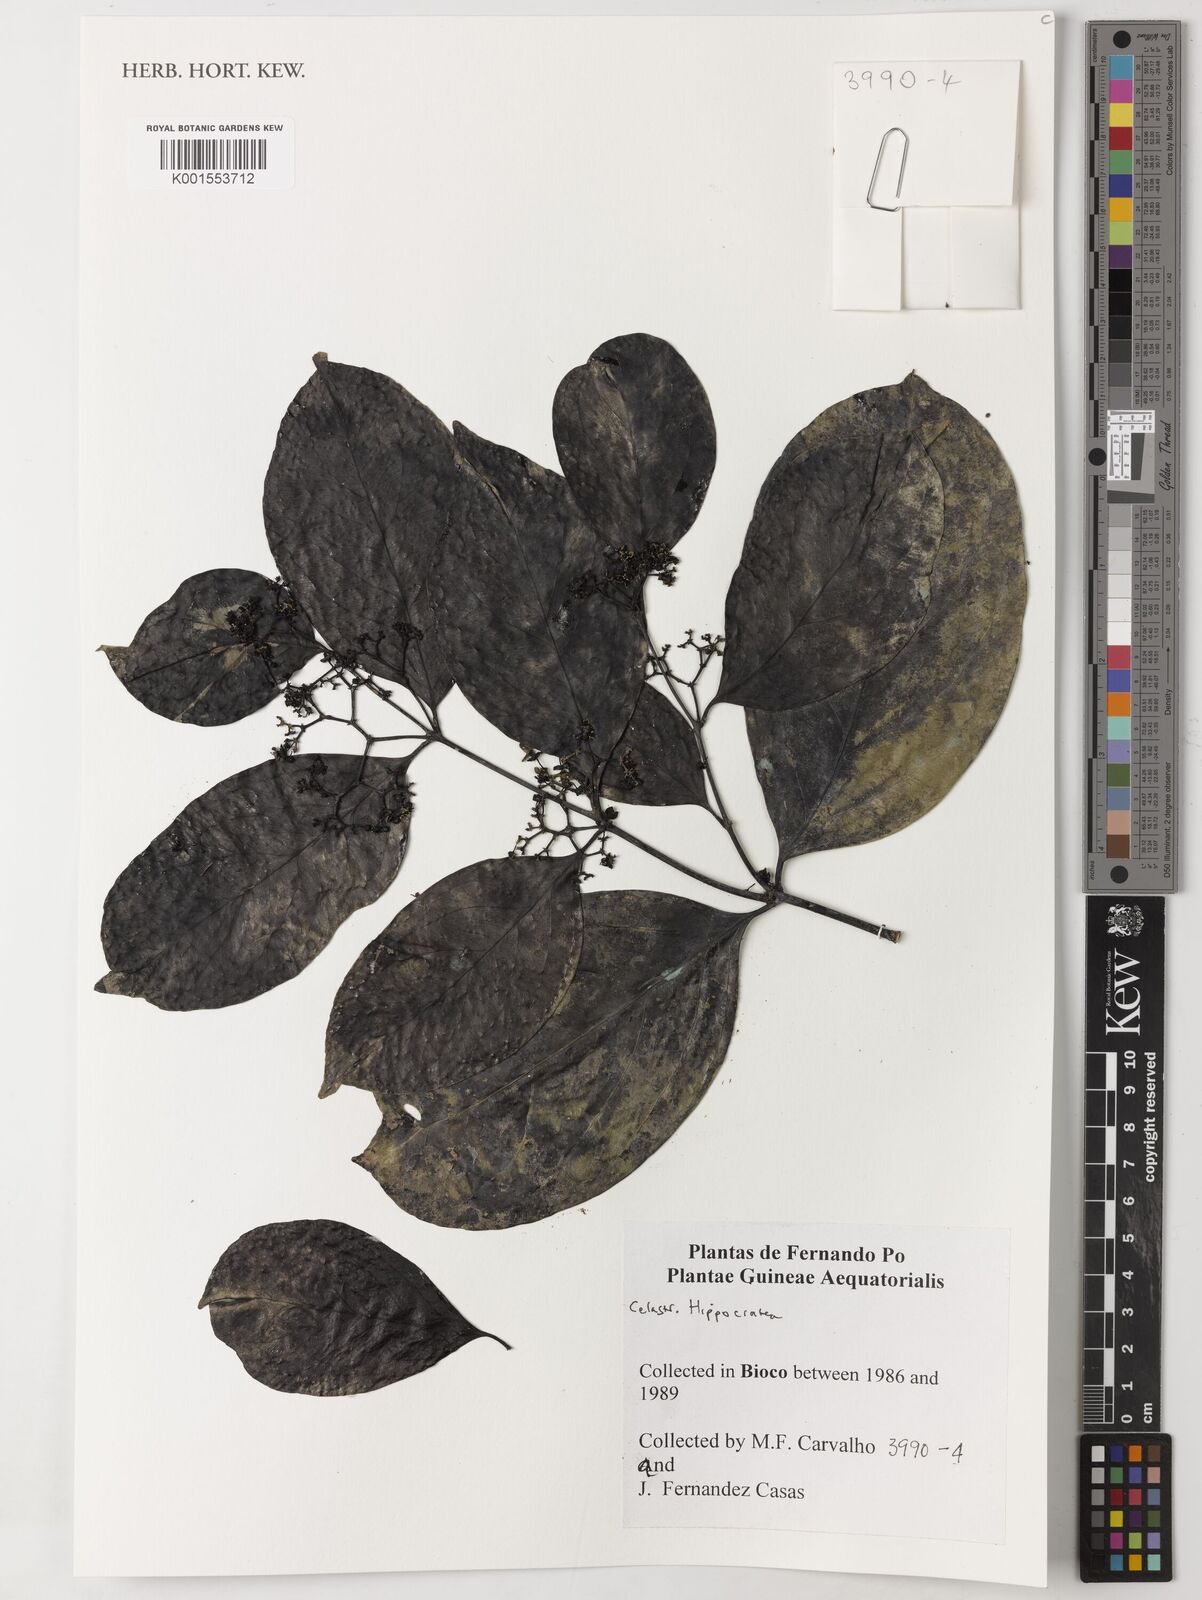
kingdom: Plantae
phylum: Tracheophyta
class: Magnoliopsida
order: Celastrales
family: Celastraceae
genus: Hippocratea
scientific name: Hippocratea
